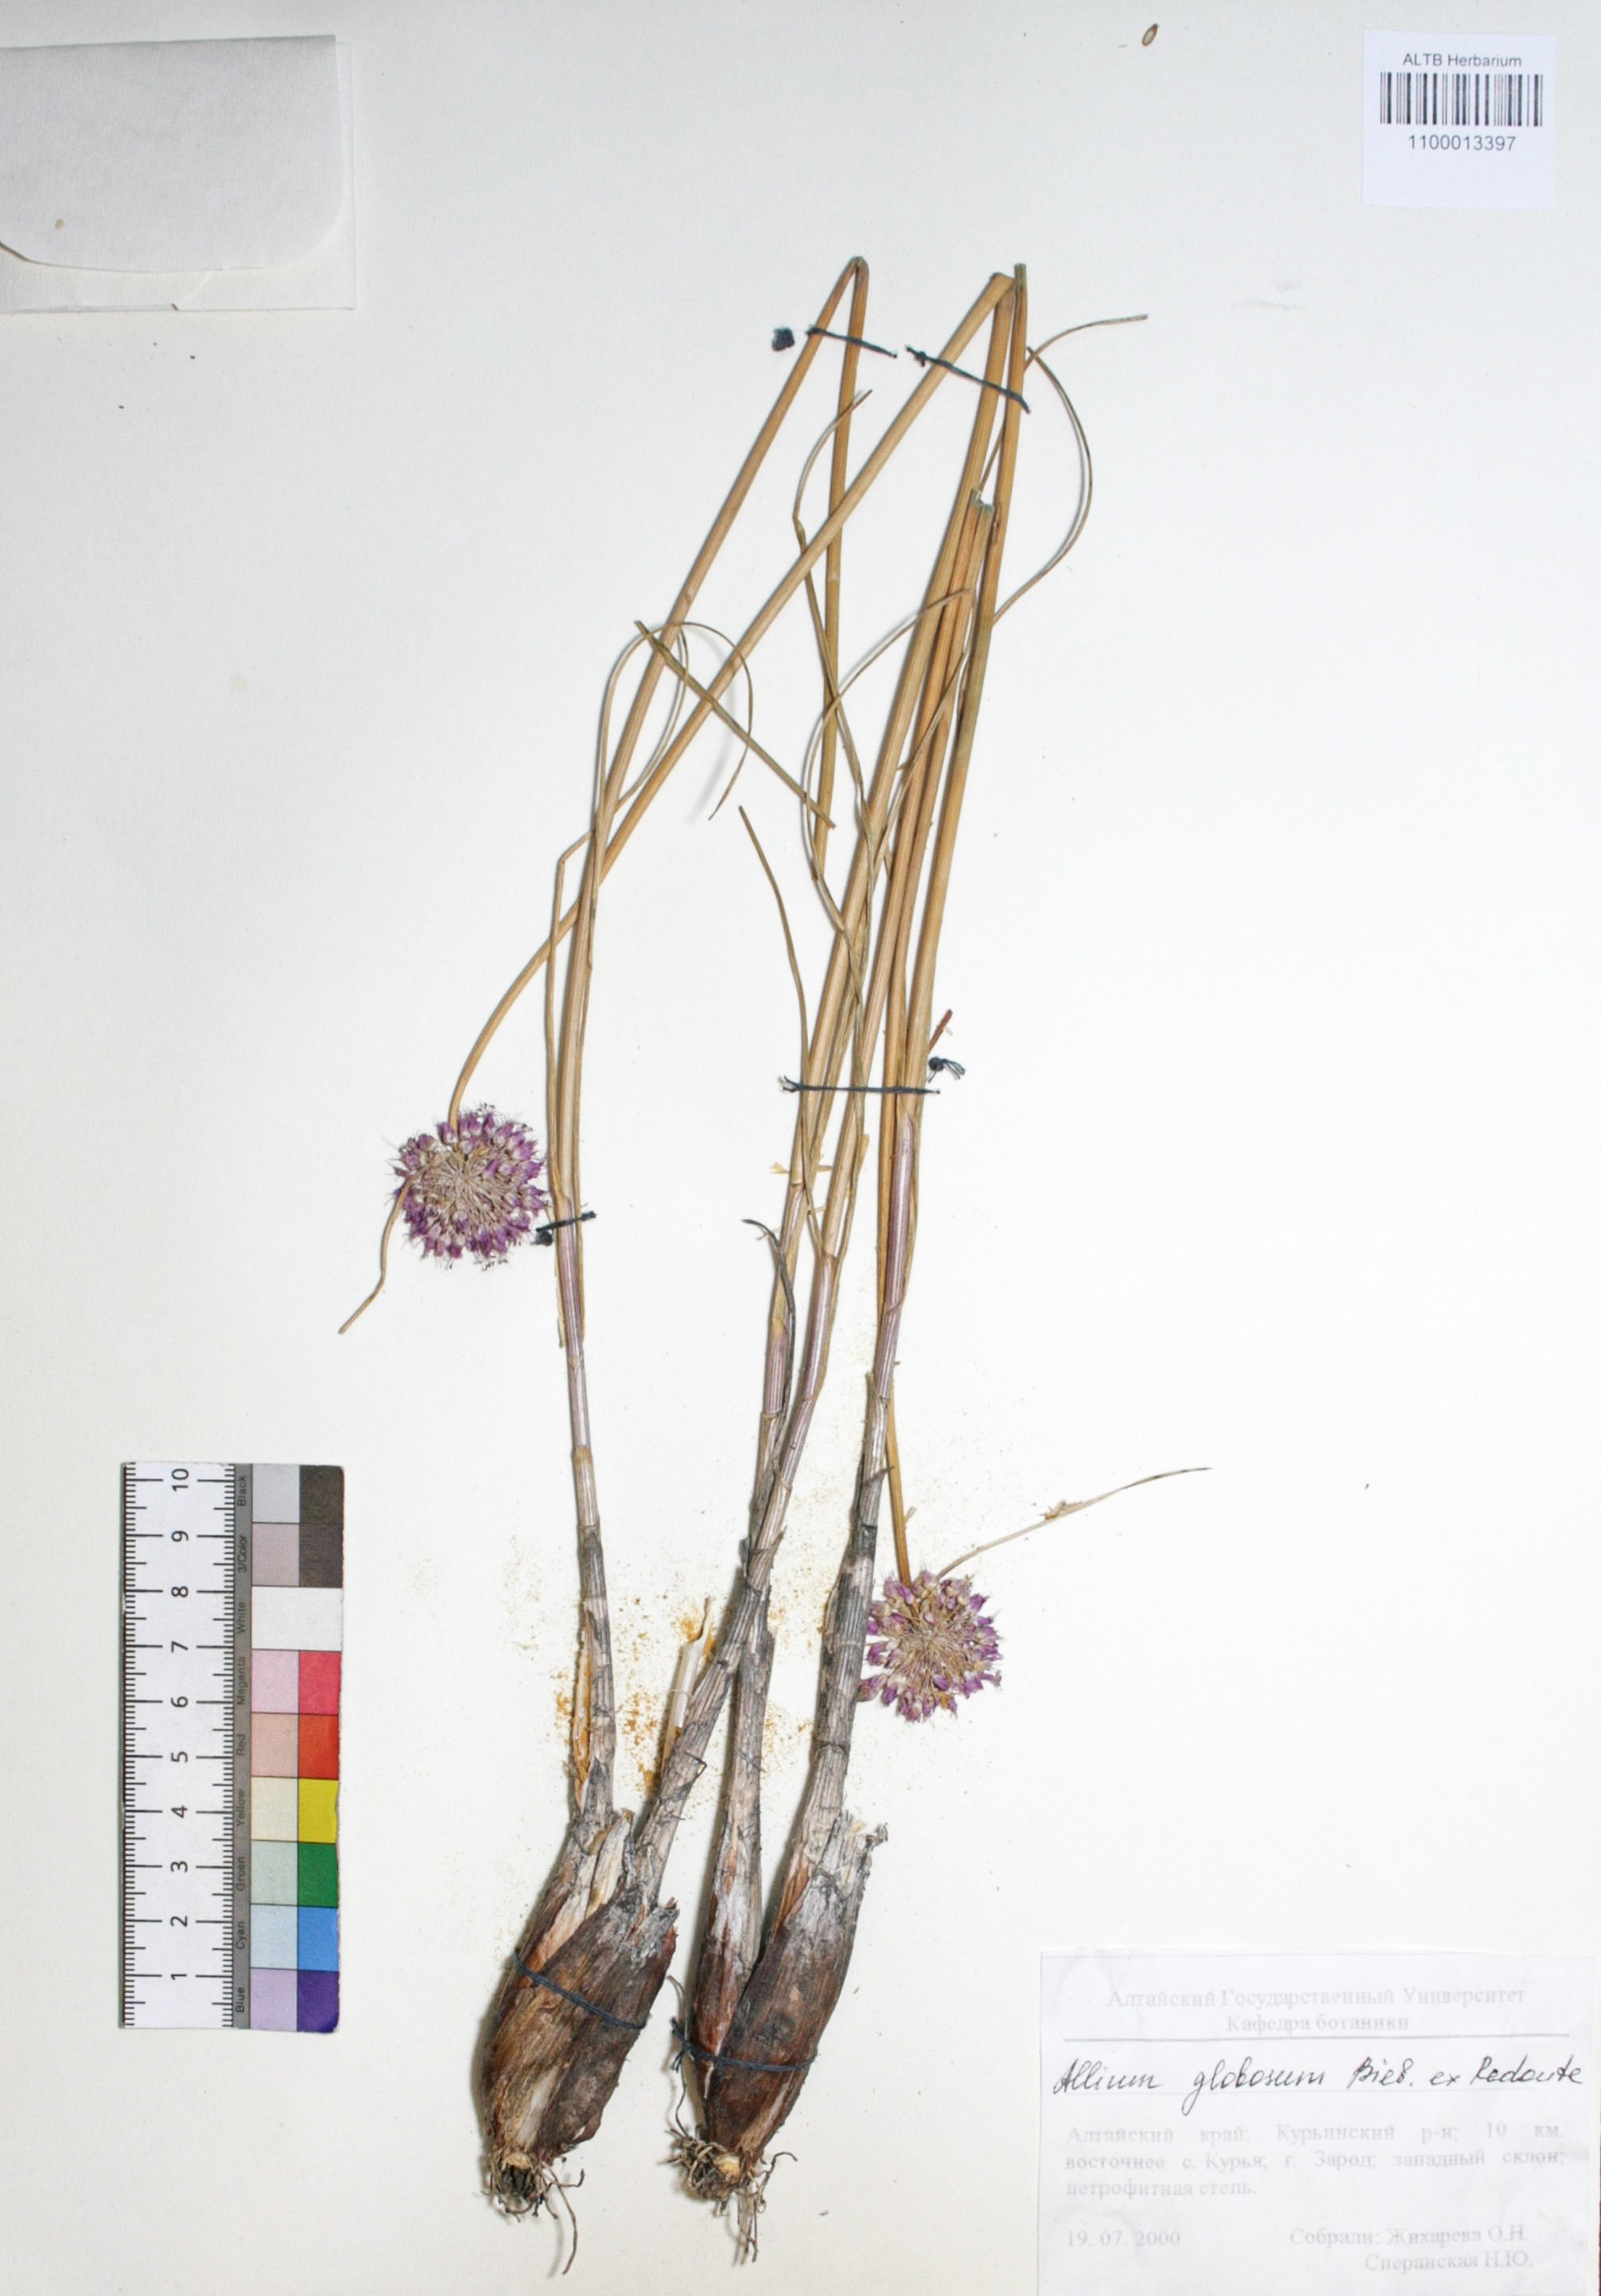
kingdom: Plantae
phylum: Tracheophyta
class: Liliopsida
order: Asparagales
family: Amaryllidaceae
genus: Allium
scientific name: Allium saxatile
